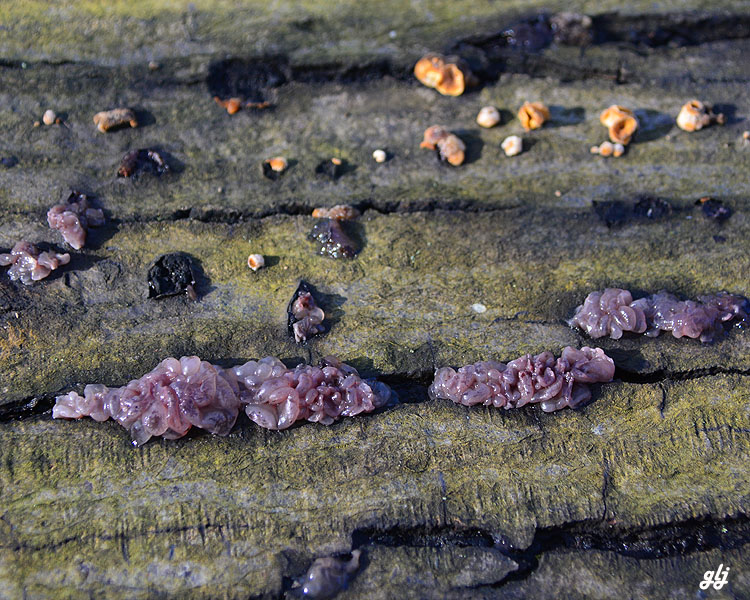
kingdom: Fungi
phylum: Ascomycota
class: Leotiomycetes
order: Helotiales
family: Gelatinodiscaceae
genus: Ascocoryne
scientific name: Ascocoryne sarcoides
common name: rødlilla sejskive
